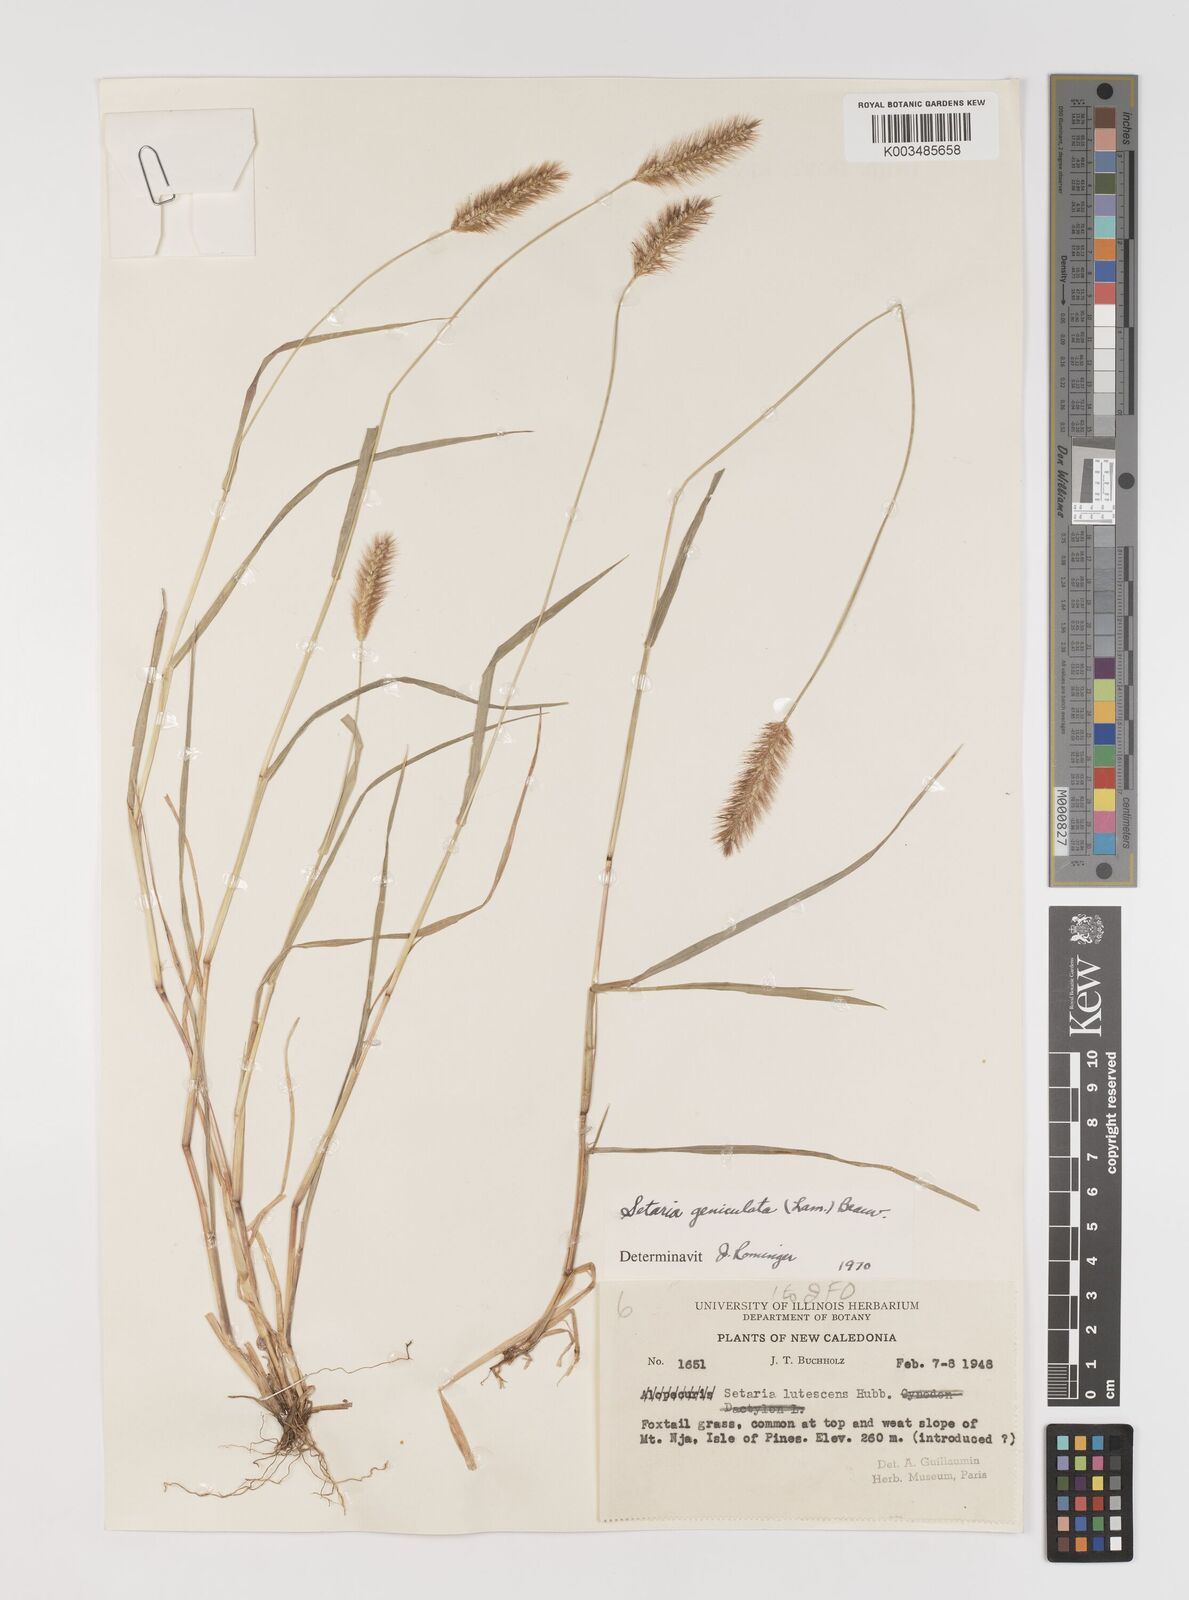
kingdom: Plantae
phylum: Tracheophyta
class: Liliopsida
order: Poales
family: Poaceae
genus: Setaria
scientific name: Setaria parviflora
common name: Knotroot bristle-grass
